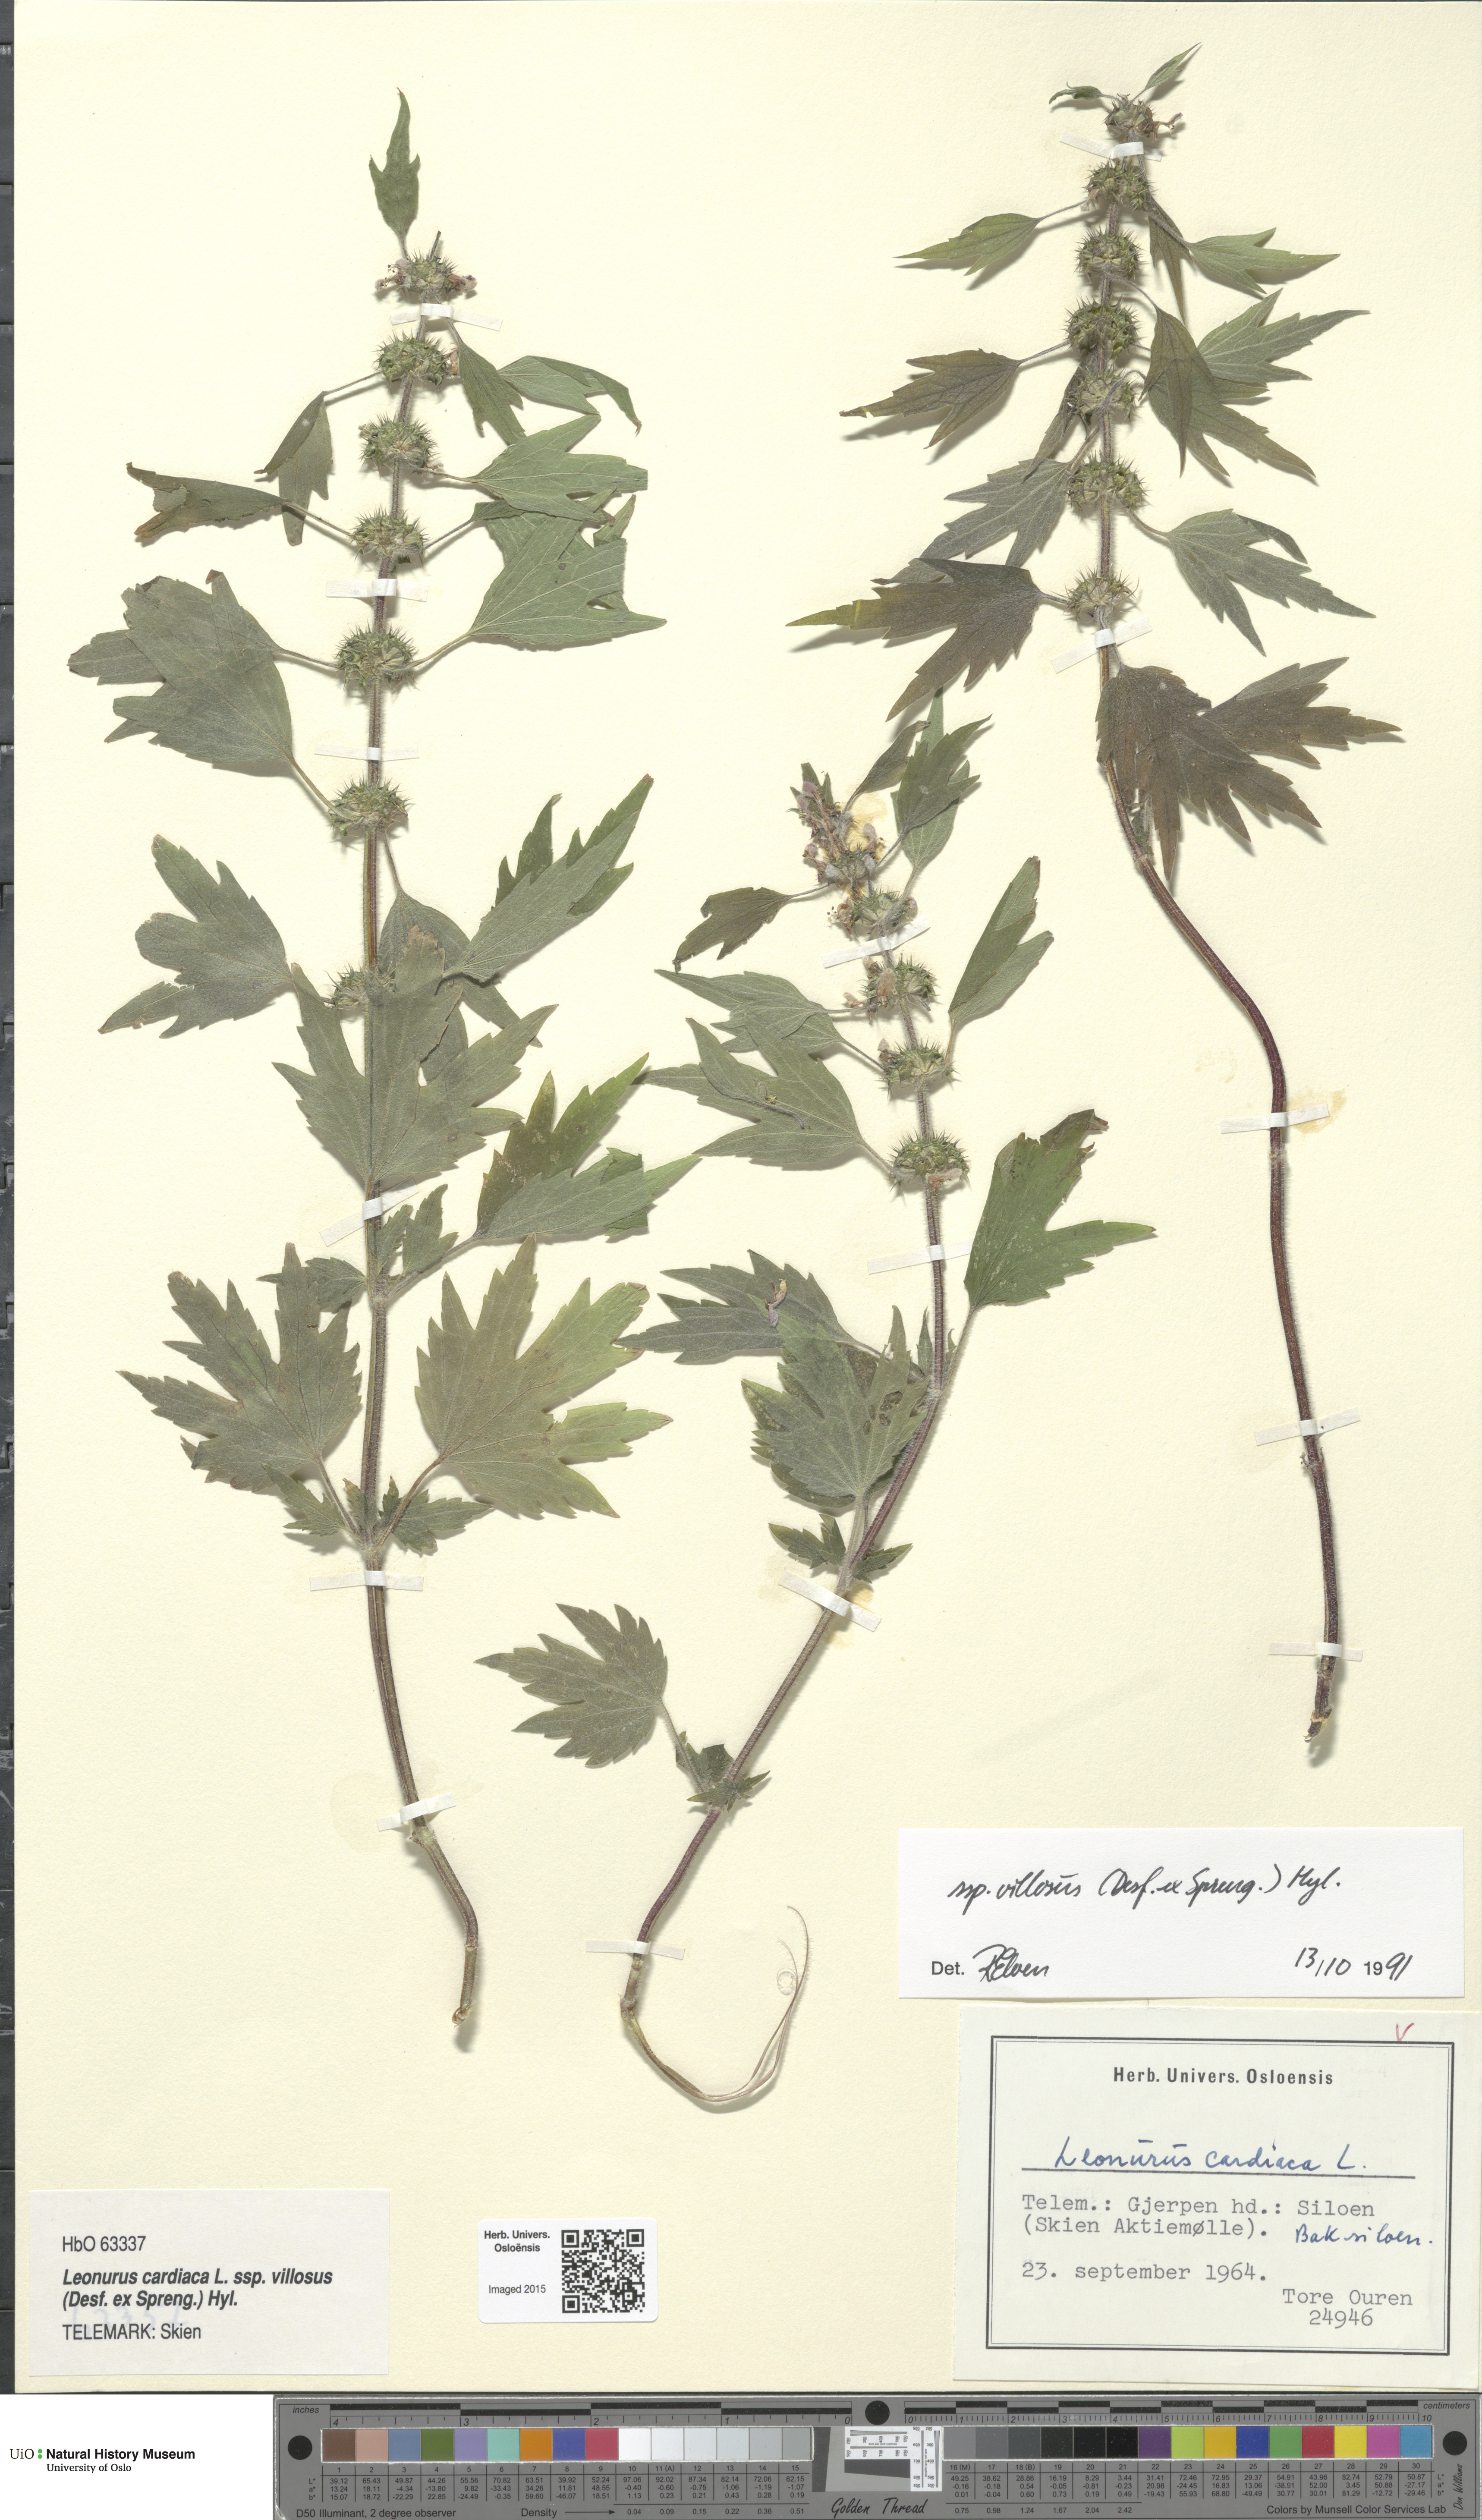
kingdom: Plantae
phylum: Tracheophyta
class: Magnoliopsida
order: Lamiales
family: Lamiaceae
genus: Leonurus
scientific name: Leonurus quinquelobatus
